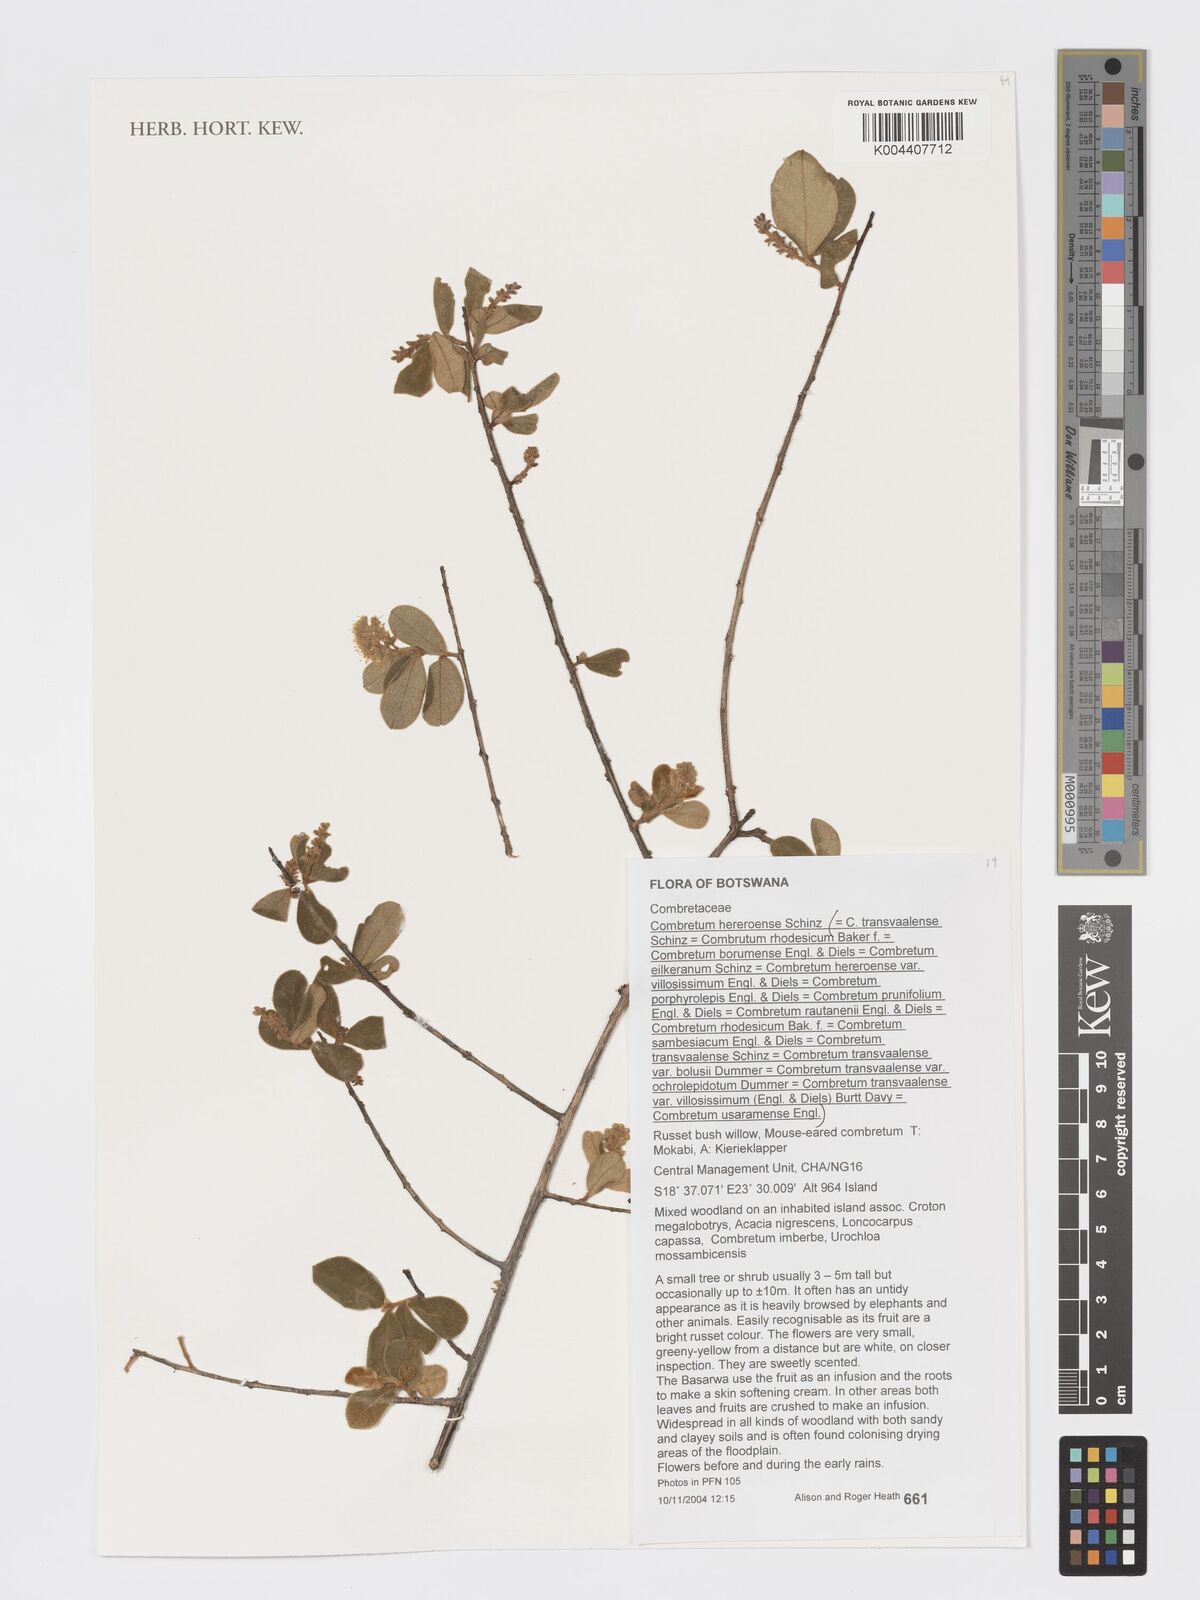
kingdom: Plantae
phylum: Tracheophyta
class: Magnoliopsida
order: Myrtales
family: Combretaceae
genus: Combretum
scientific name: Combretum hereroense
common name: Russet bushwillow
